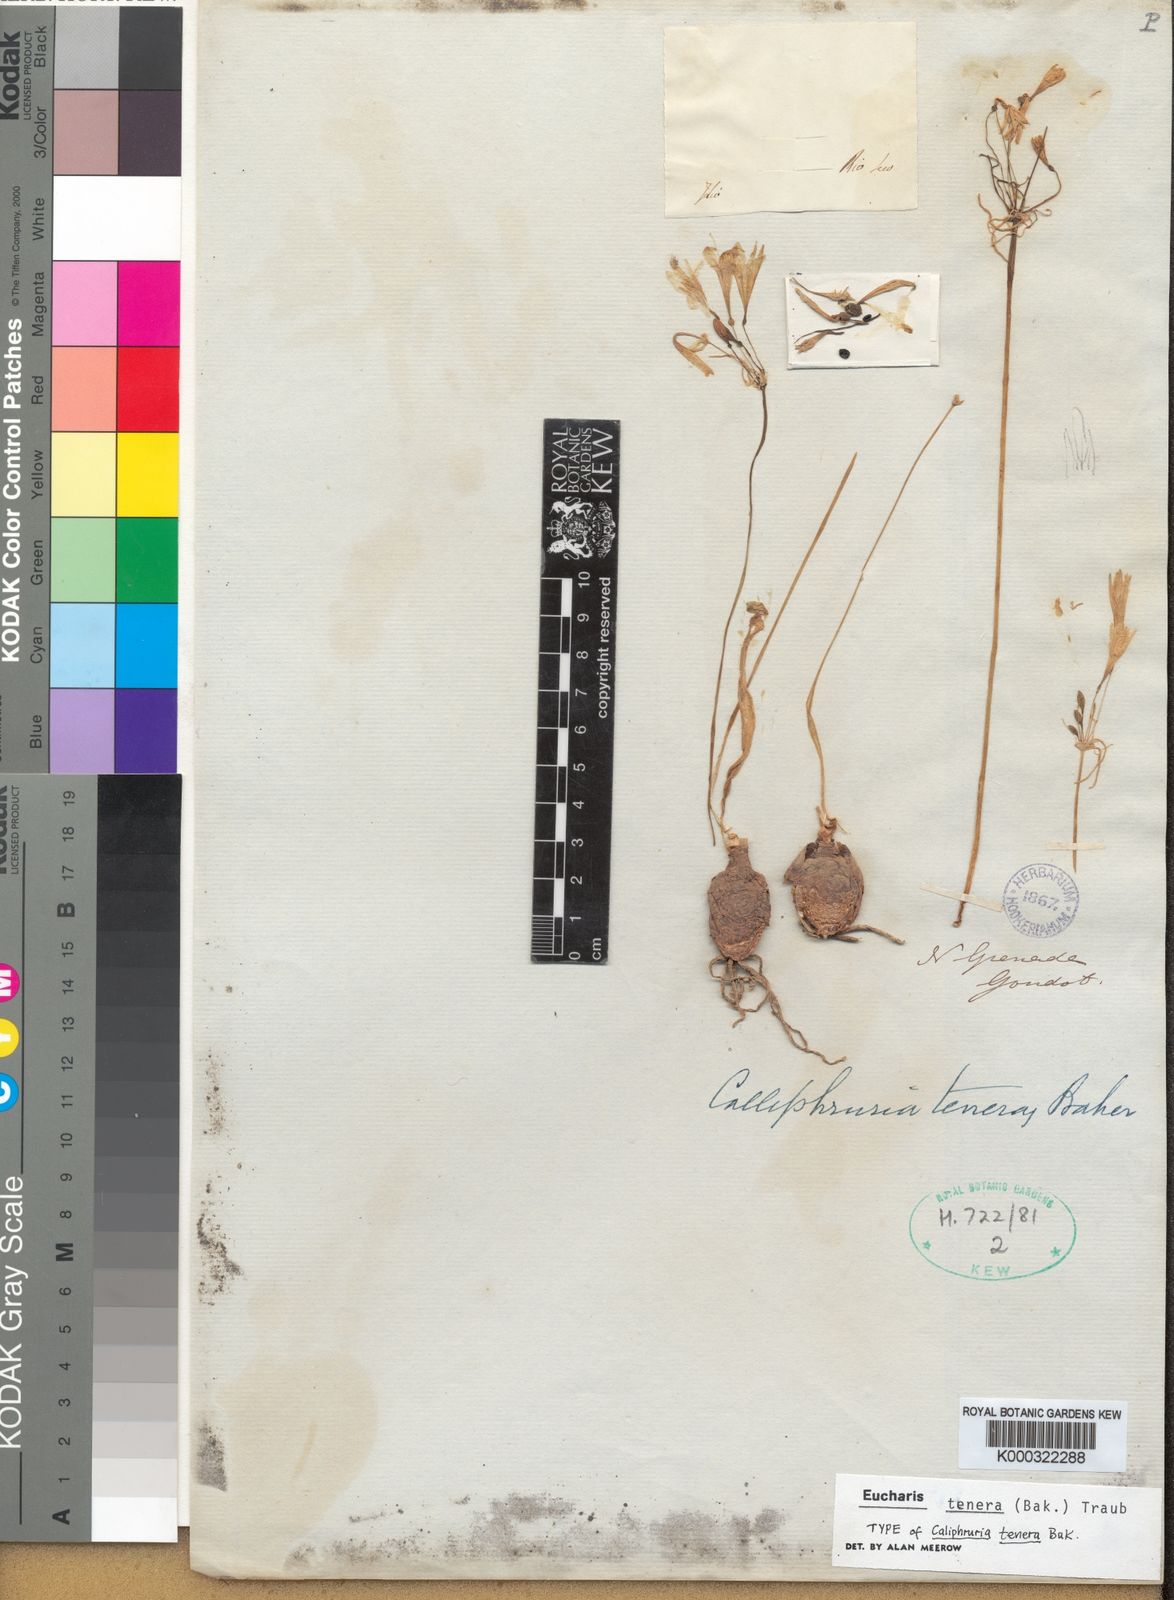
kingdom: Plantae
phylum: Tracheophyta
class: Liliopsida
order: Asparagales
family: Amaryllidaceae
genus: Urceolina
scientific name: Urceolina tenera
